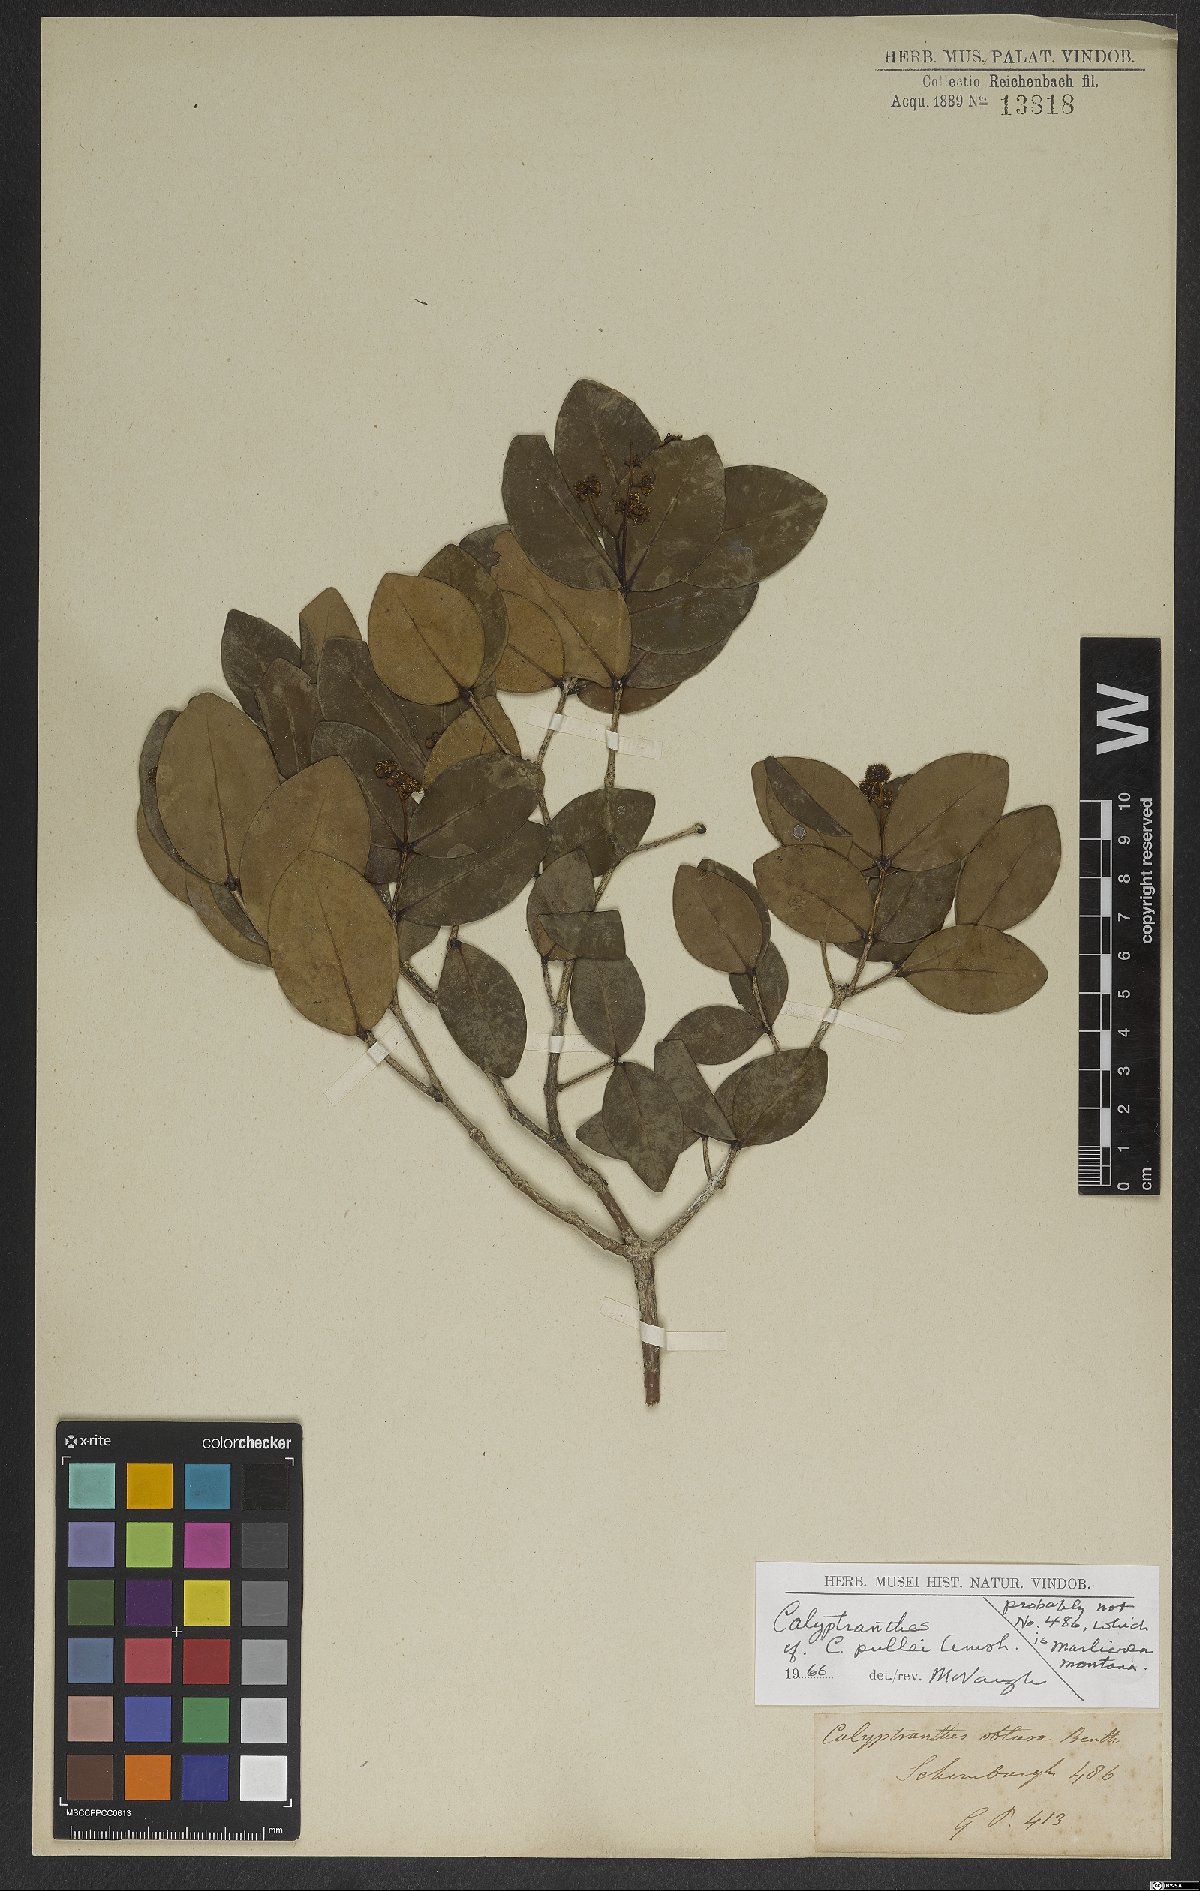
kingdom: Plantae
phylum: Tracheophyta
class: Magnoliopsida
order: Myrtales
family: Myrtaceae
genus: Myrcia
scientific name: Myrcia pullei
